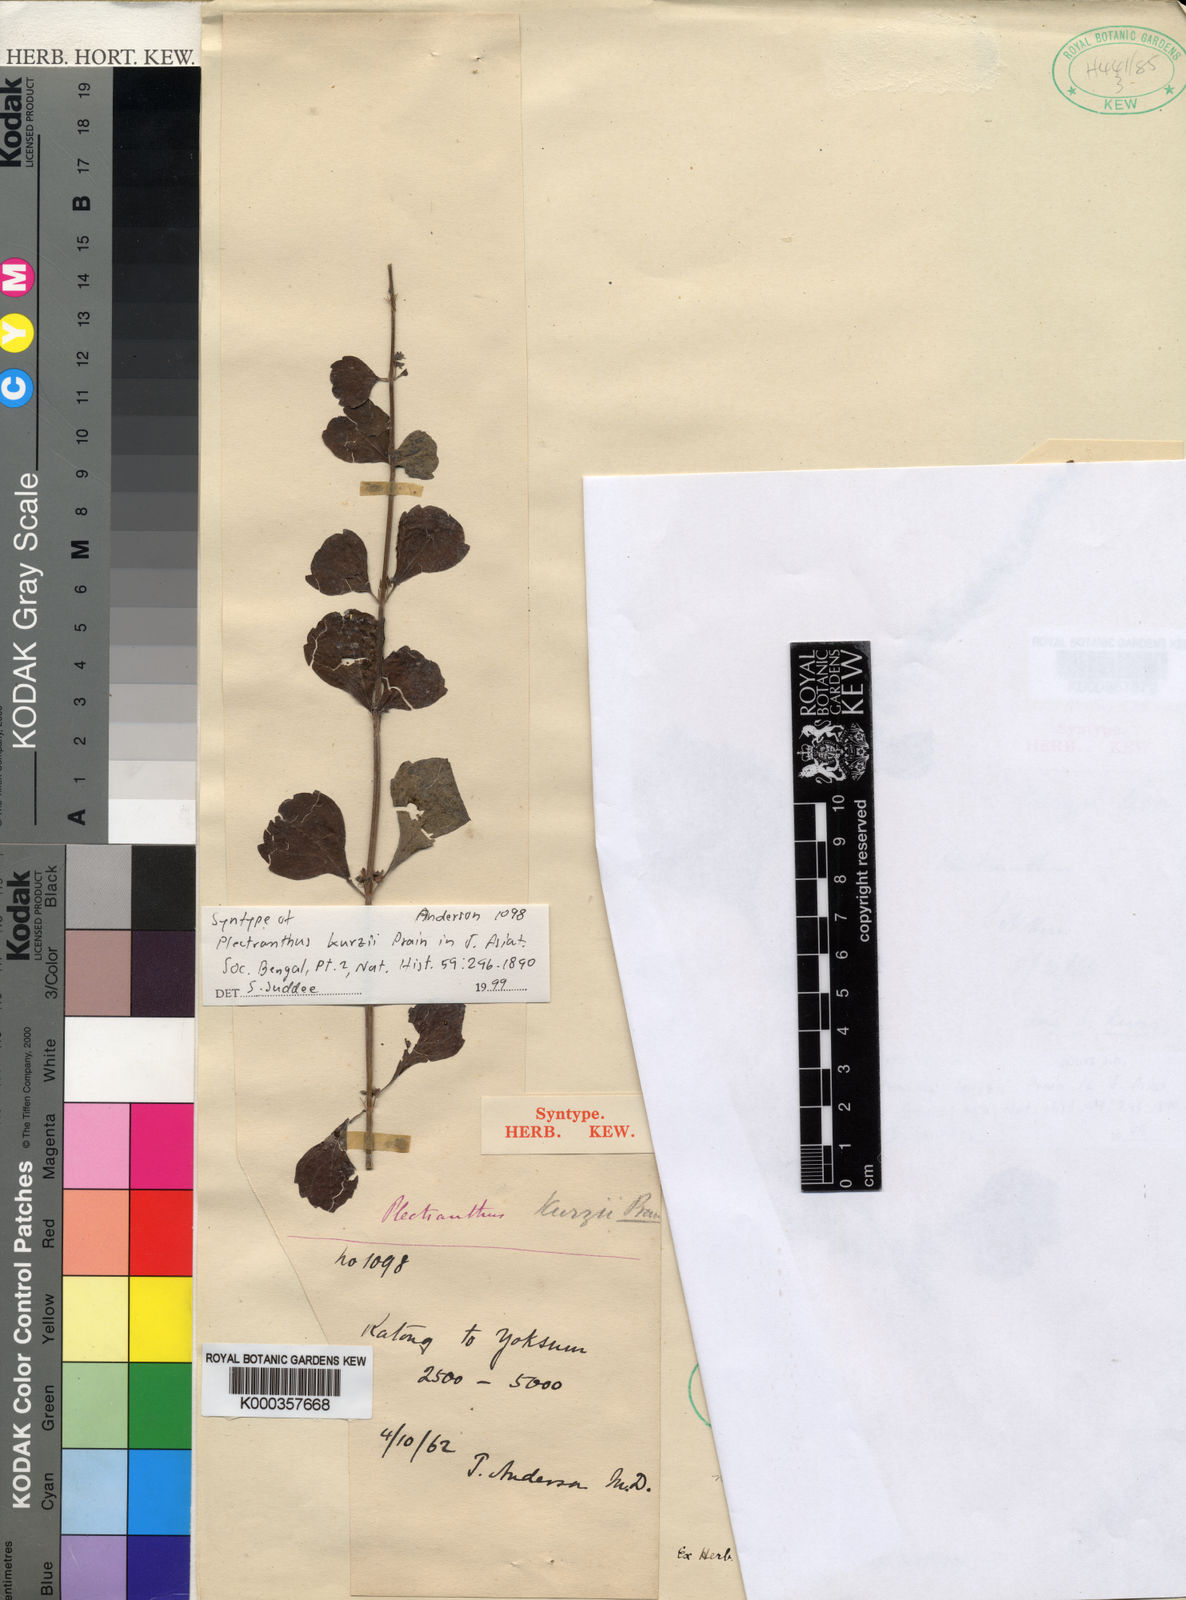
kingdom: Plantae
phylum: Tracheophyta
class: Magnoliopsida
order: Lamiales
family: Lamiaceae
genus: Isodon
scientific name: Isodon kurzii
